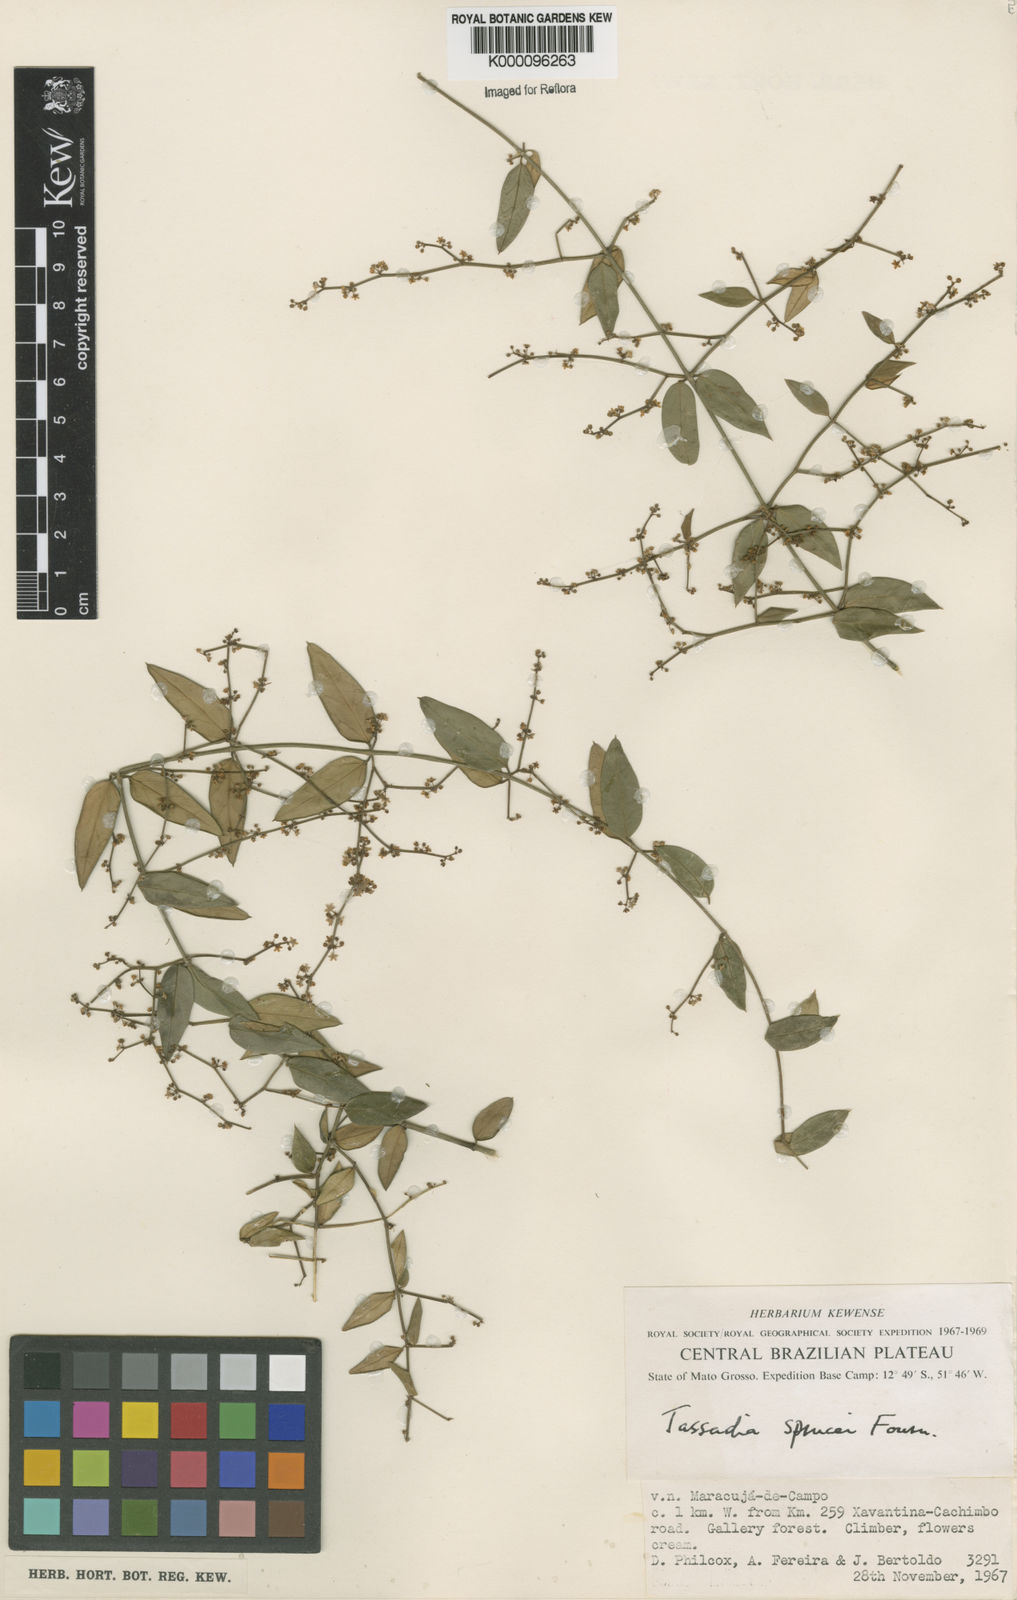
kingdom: Plantae
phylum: Tracheophyta
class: Magnoliopsida
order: Gentianales
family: Apocynaceae
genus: Tassadia
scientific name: Tassadia propinqua
